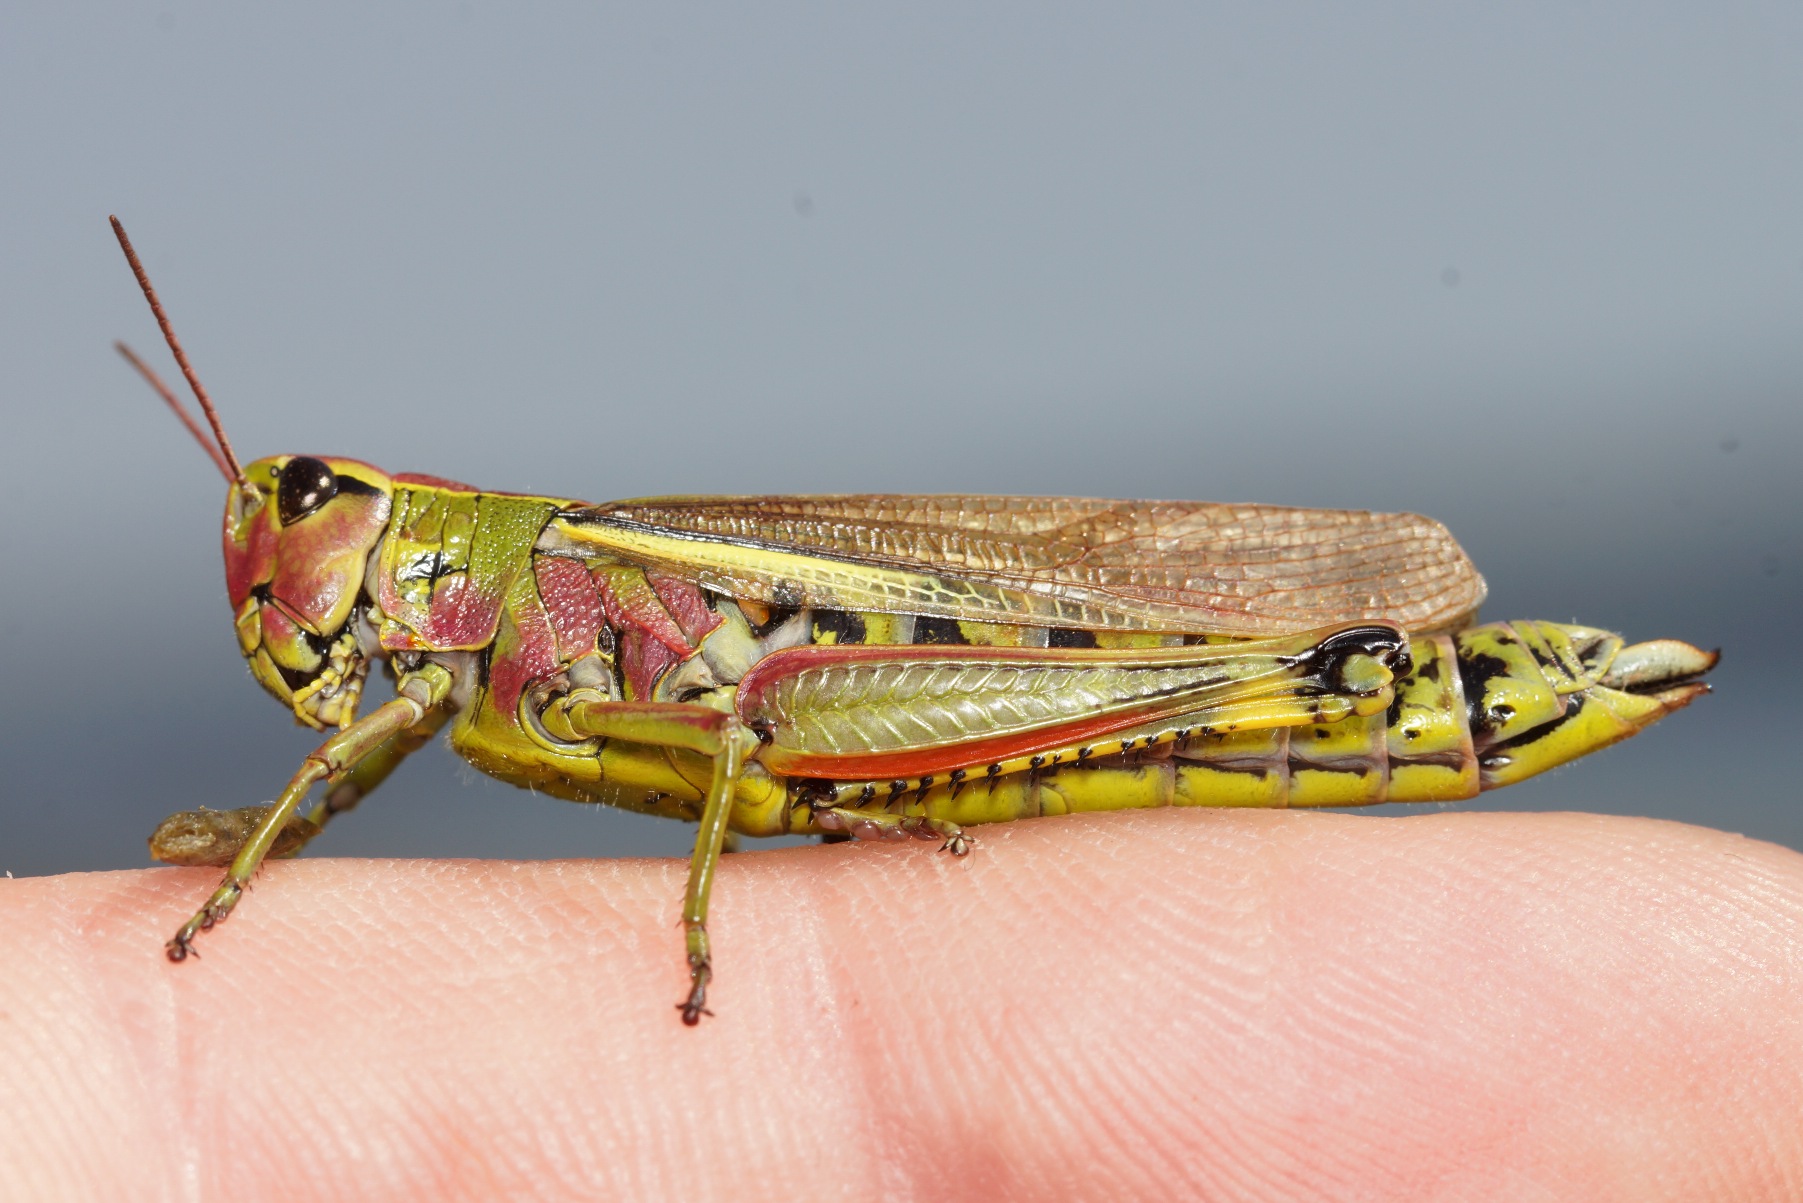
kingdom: Animalia
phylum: Arthropoda
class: Insecta
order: Orthoptera
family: Acrididae
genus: Stethophyma
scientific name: Stethophyma grossum
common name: Sumpgræshoppe
